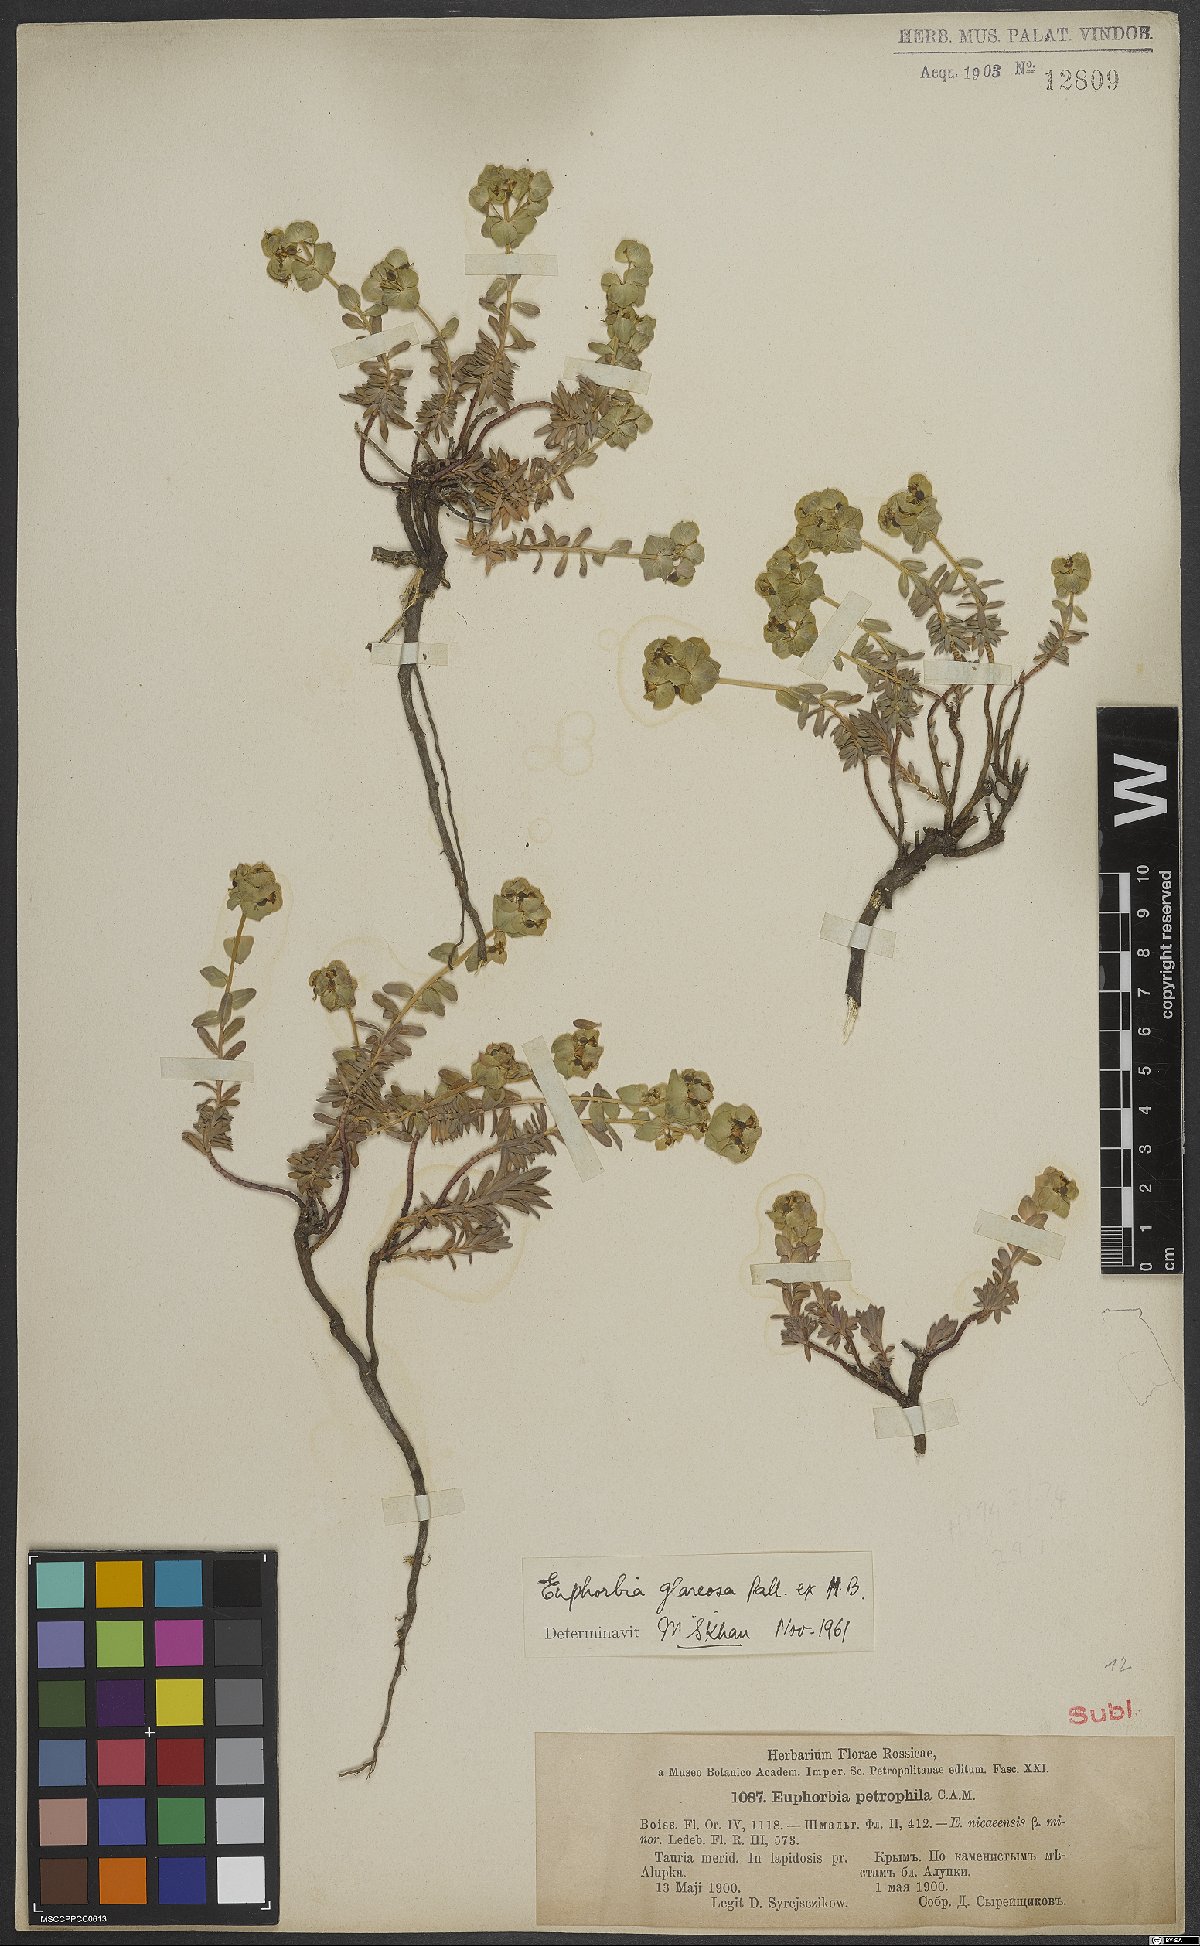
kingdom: Plantae
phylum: Tracheophyta
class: Magnoliopsida
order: Malpighiales
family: Euphorbiaceae
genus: Euphorbia
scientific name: Euphorbia glareosa
